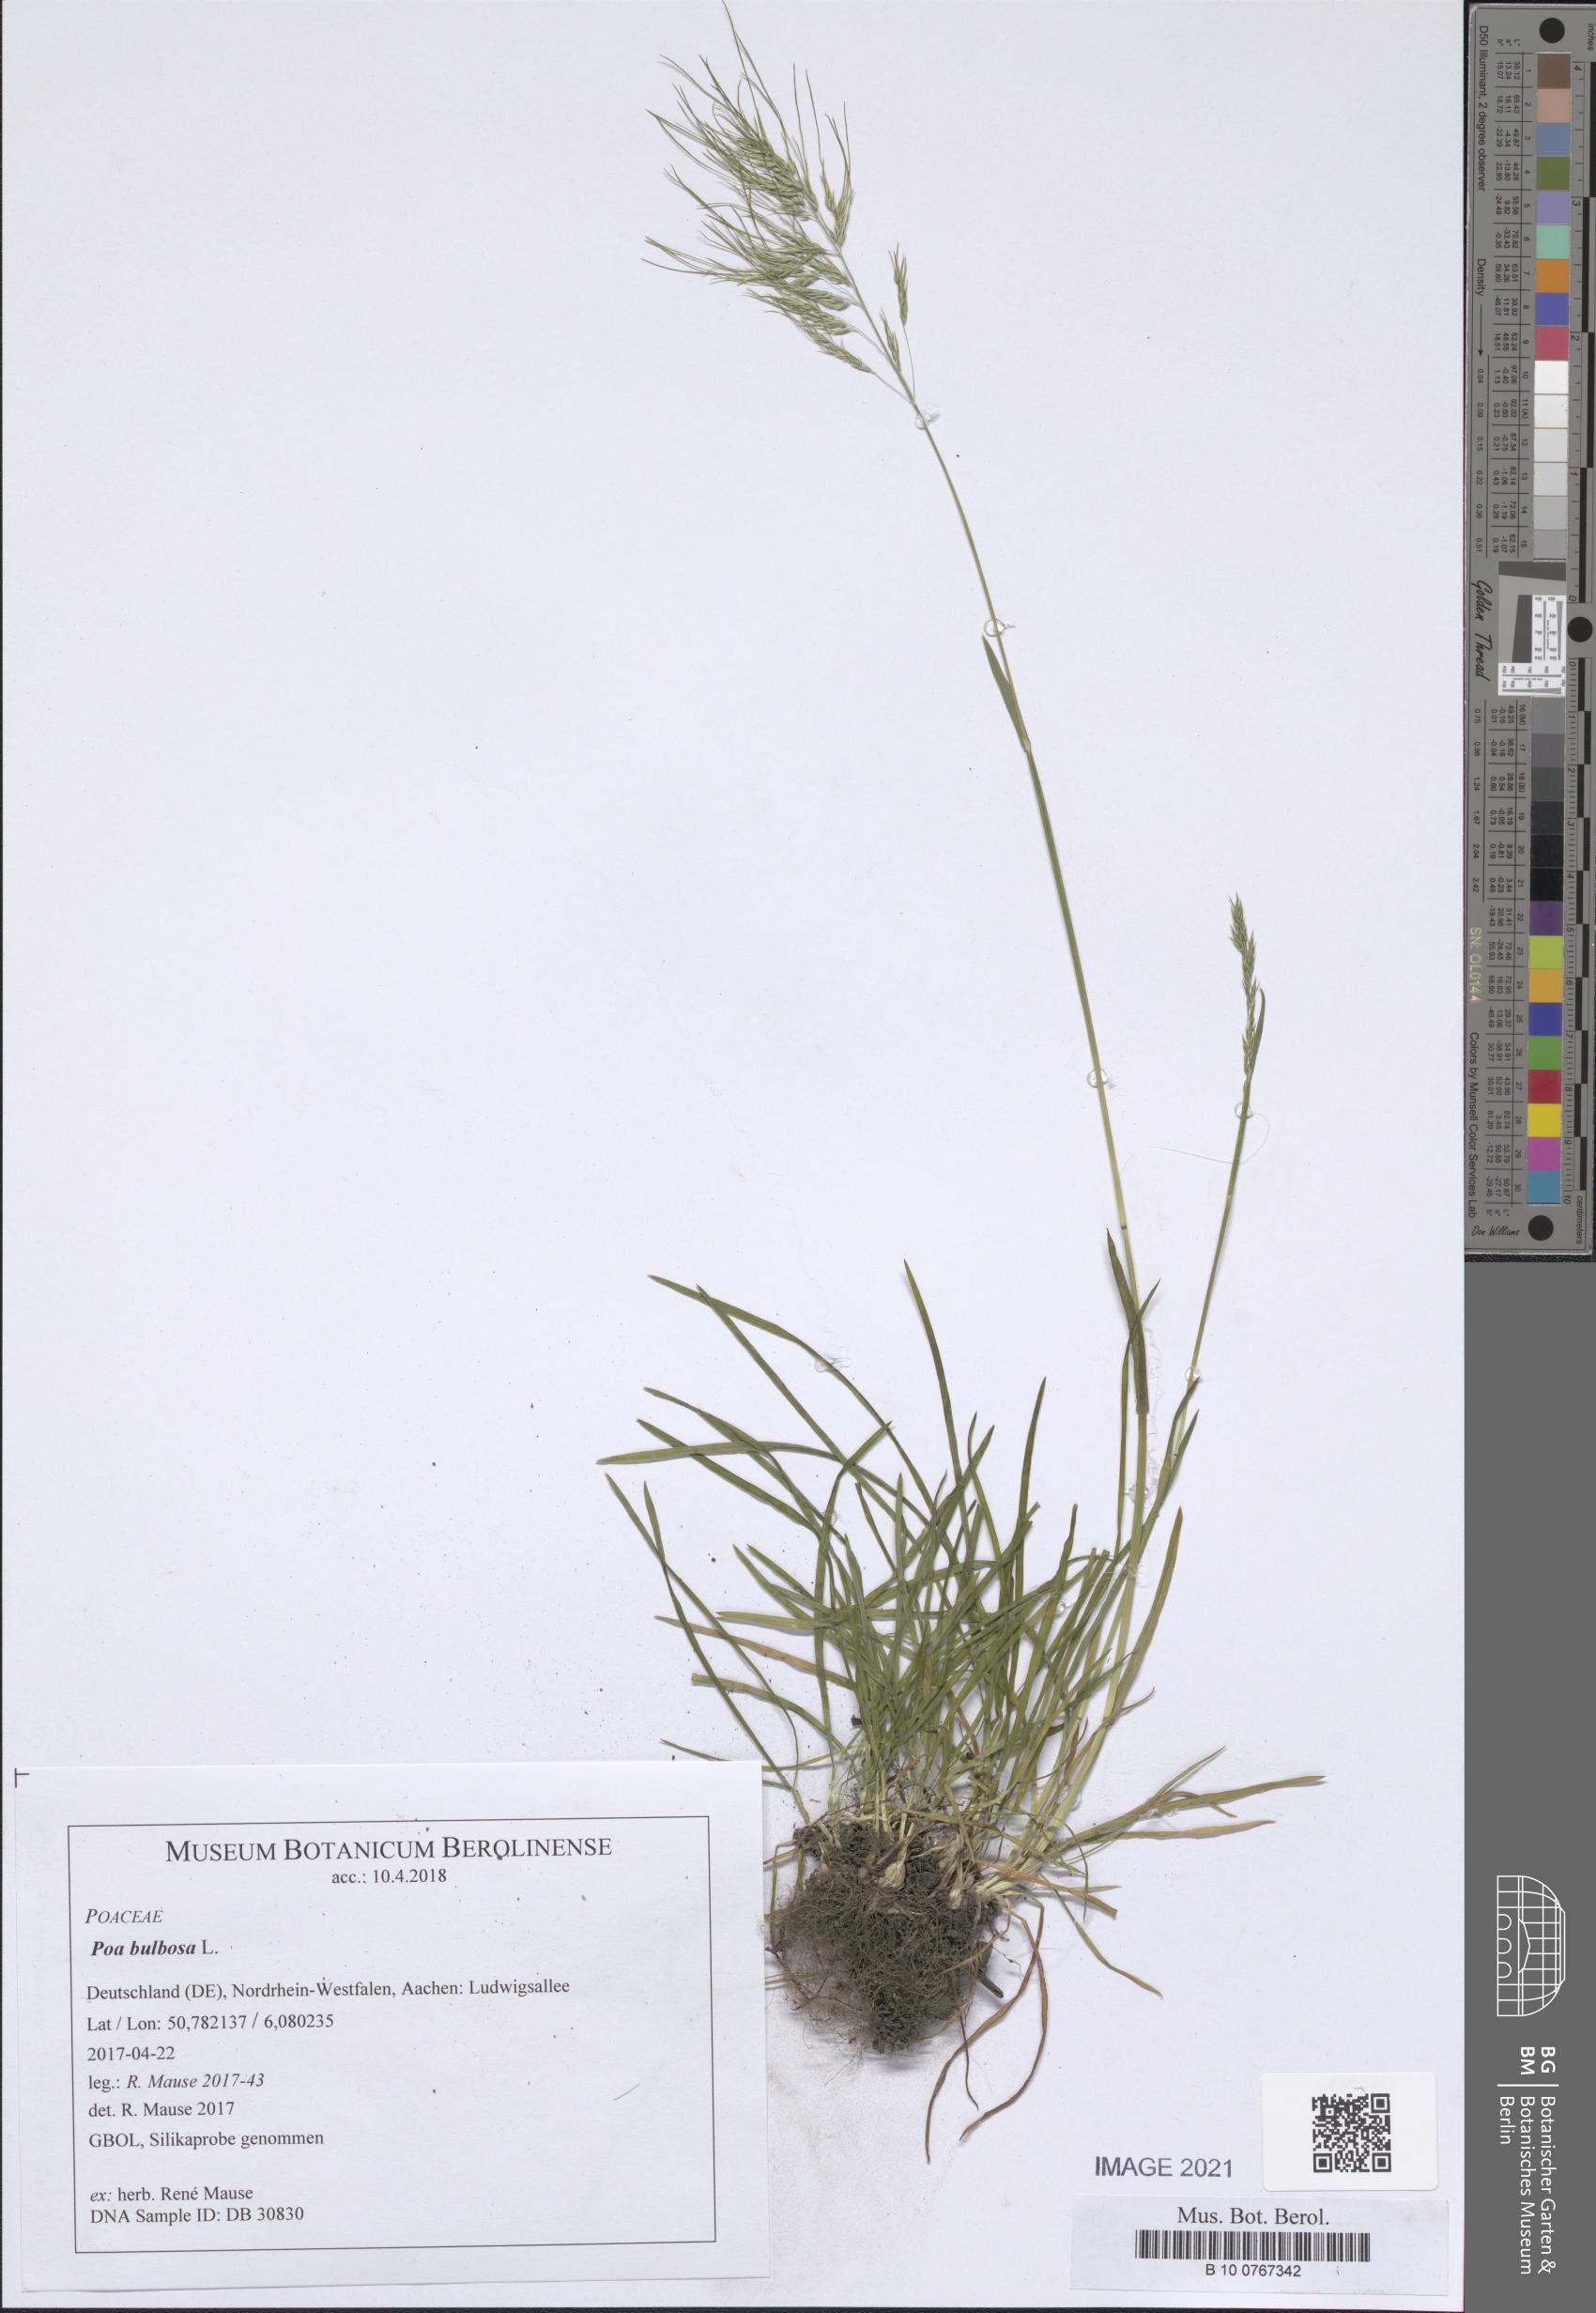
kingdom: Plantae
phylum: Tracheophyta
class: Liliopsida
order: Poales
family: Poaceae
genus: Poa
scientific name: Poa bulbosa
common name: Bulbous bluegrass
